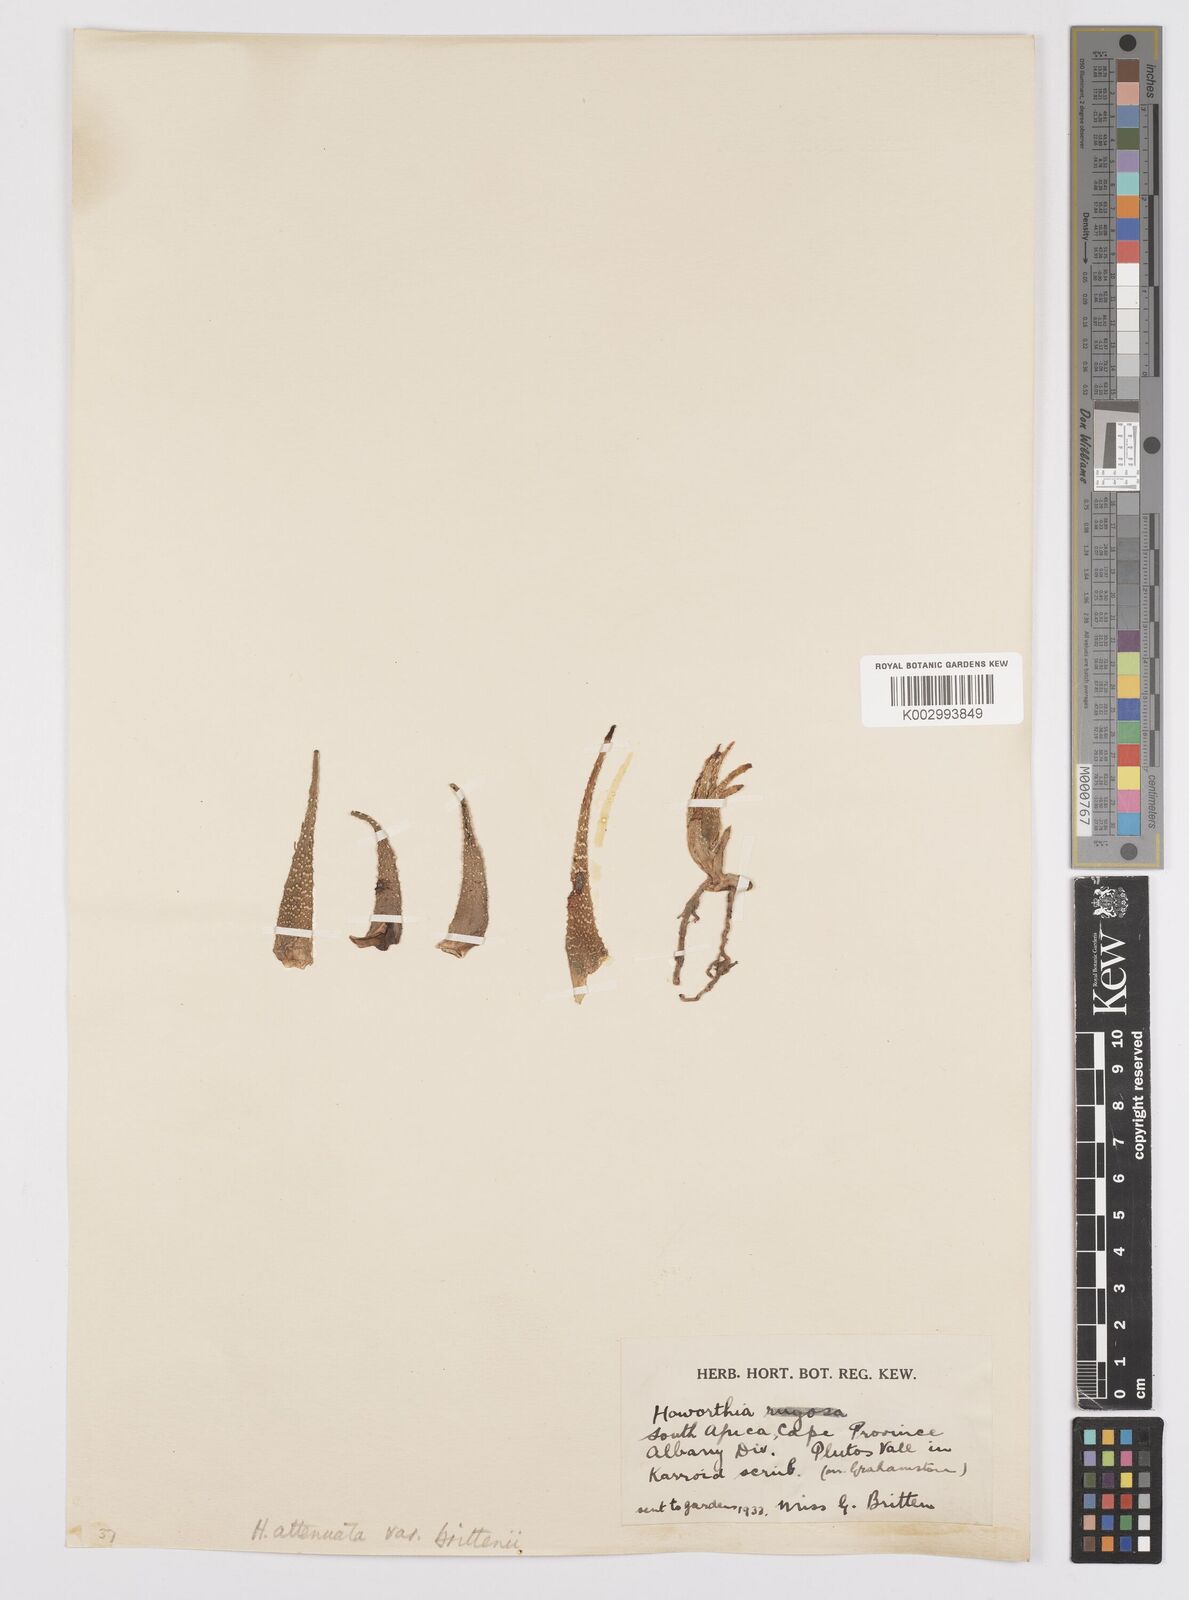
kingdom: Plantae
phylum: Tracheophyta
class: Liliopsida
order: Asparagales
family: Asphodelaceae
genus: Haworthiopsis
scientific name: Haworthiopsis attenuata
